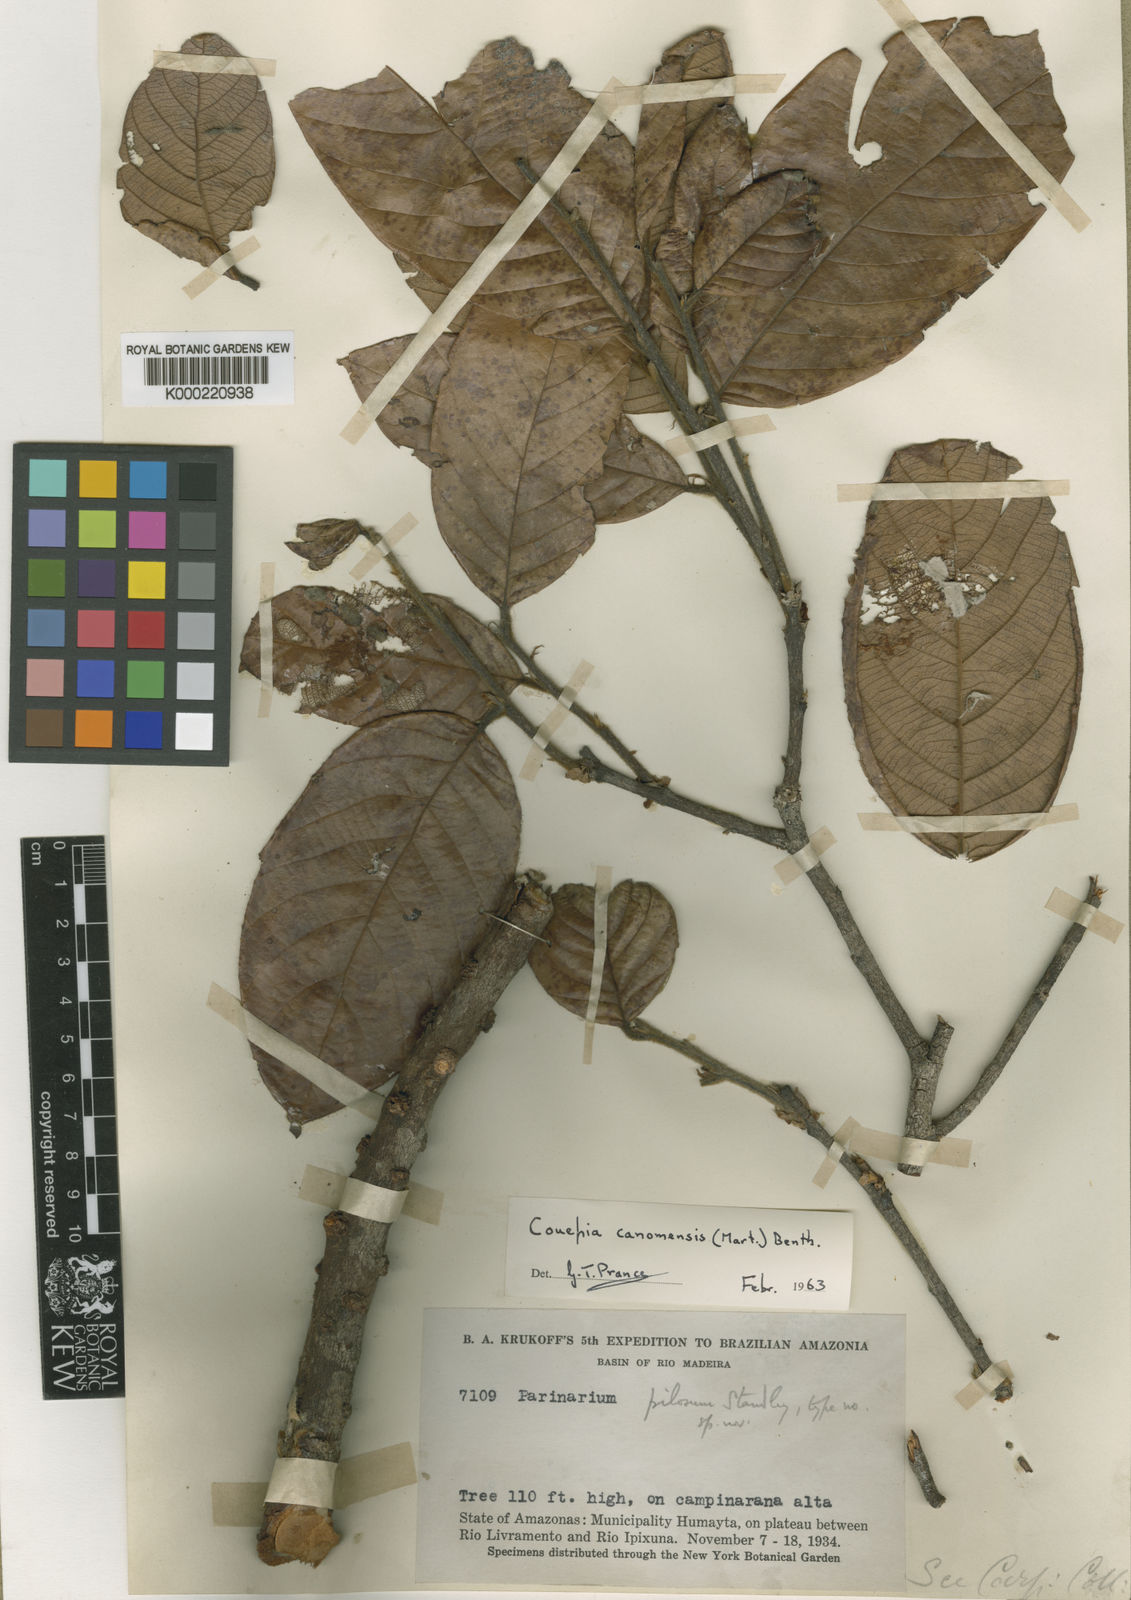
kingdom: Plantae
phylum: Tracheophyta
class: Magnoliopsida
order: Malpighiales
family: Chrysobalanaceae
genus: Couepia
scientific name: Couepia
